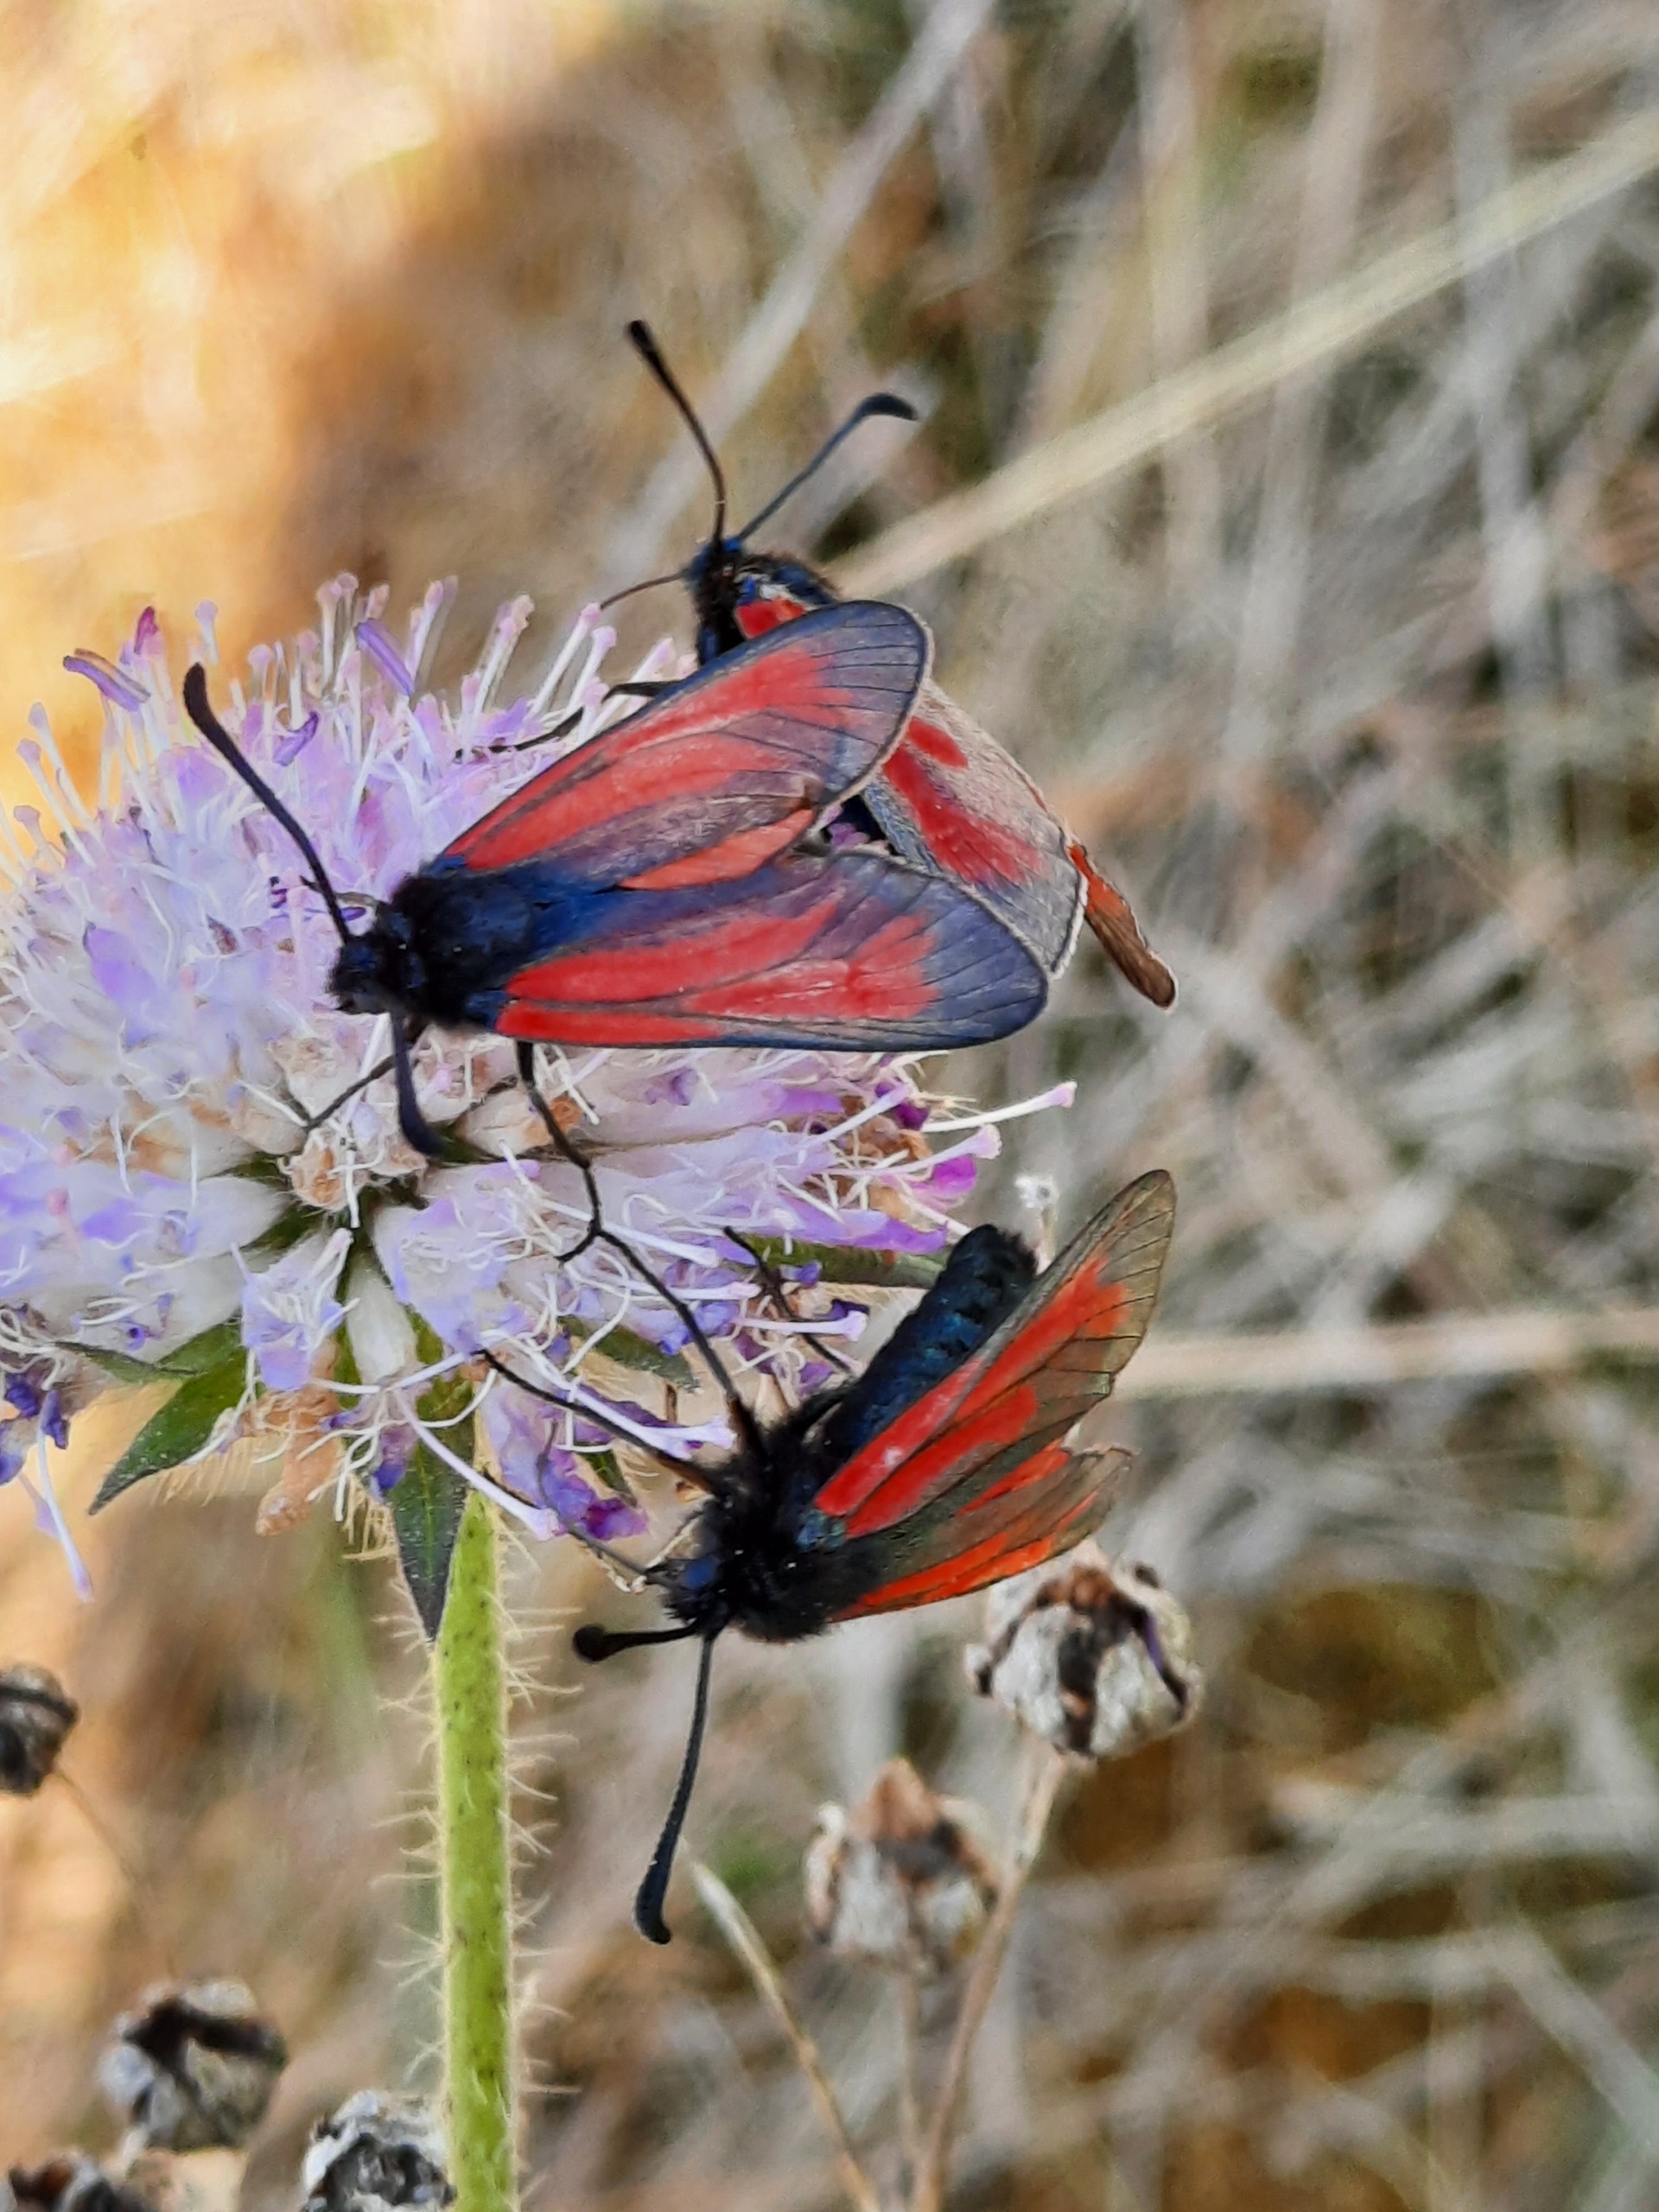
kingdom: Animalia
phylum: Arthropoda
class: Insecta
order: Lepidoptera
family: Zygaenidae
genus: Zygaena
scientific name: Zygaena minos
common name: Pimpernelkøllesværmer
